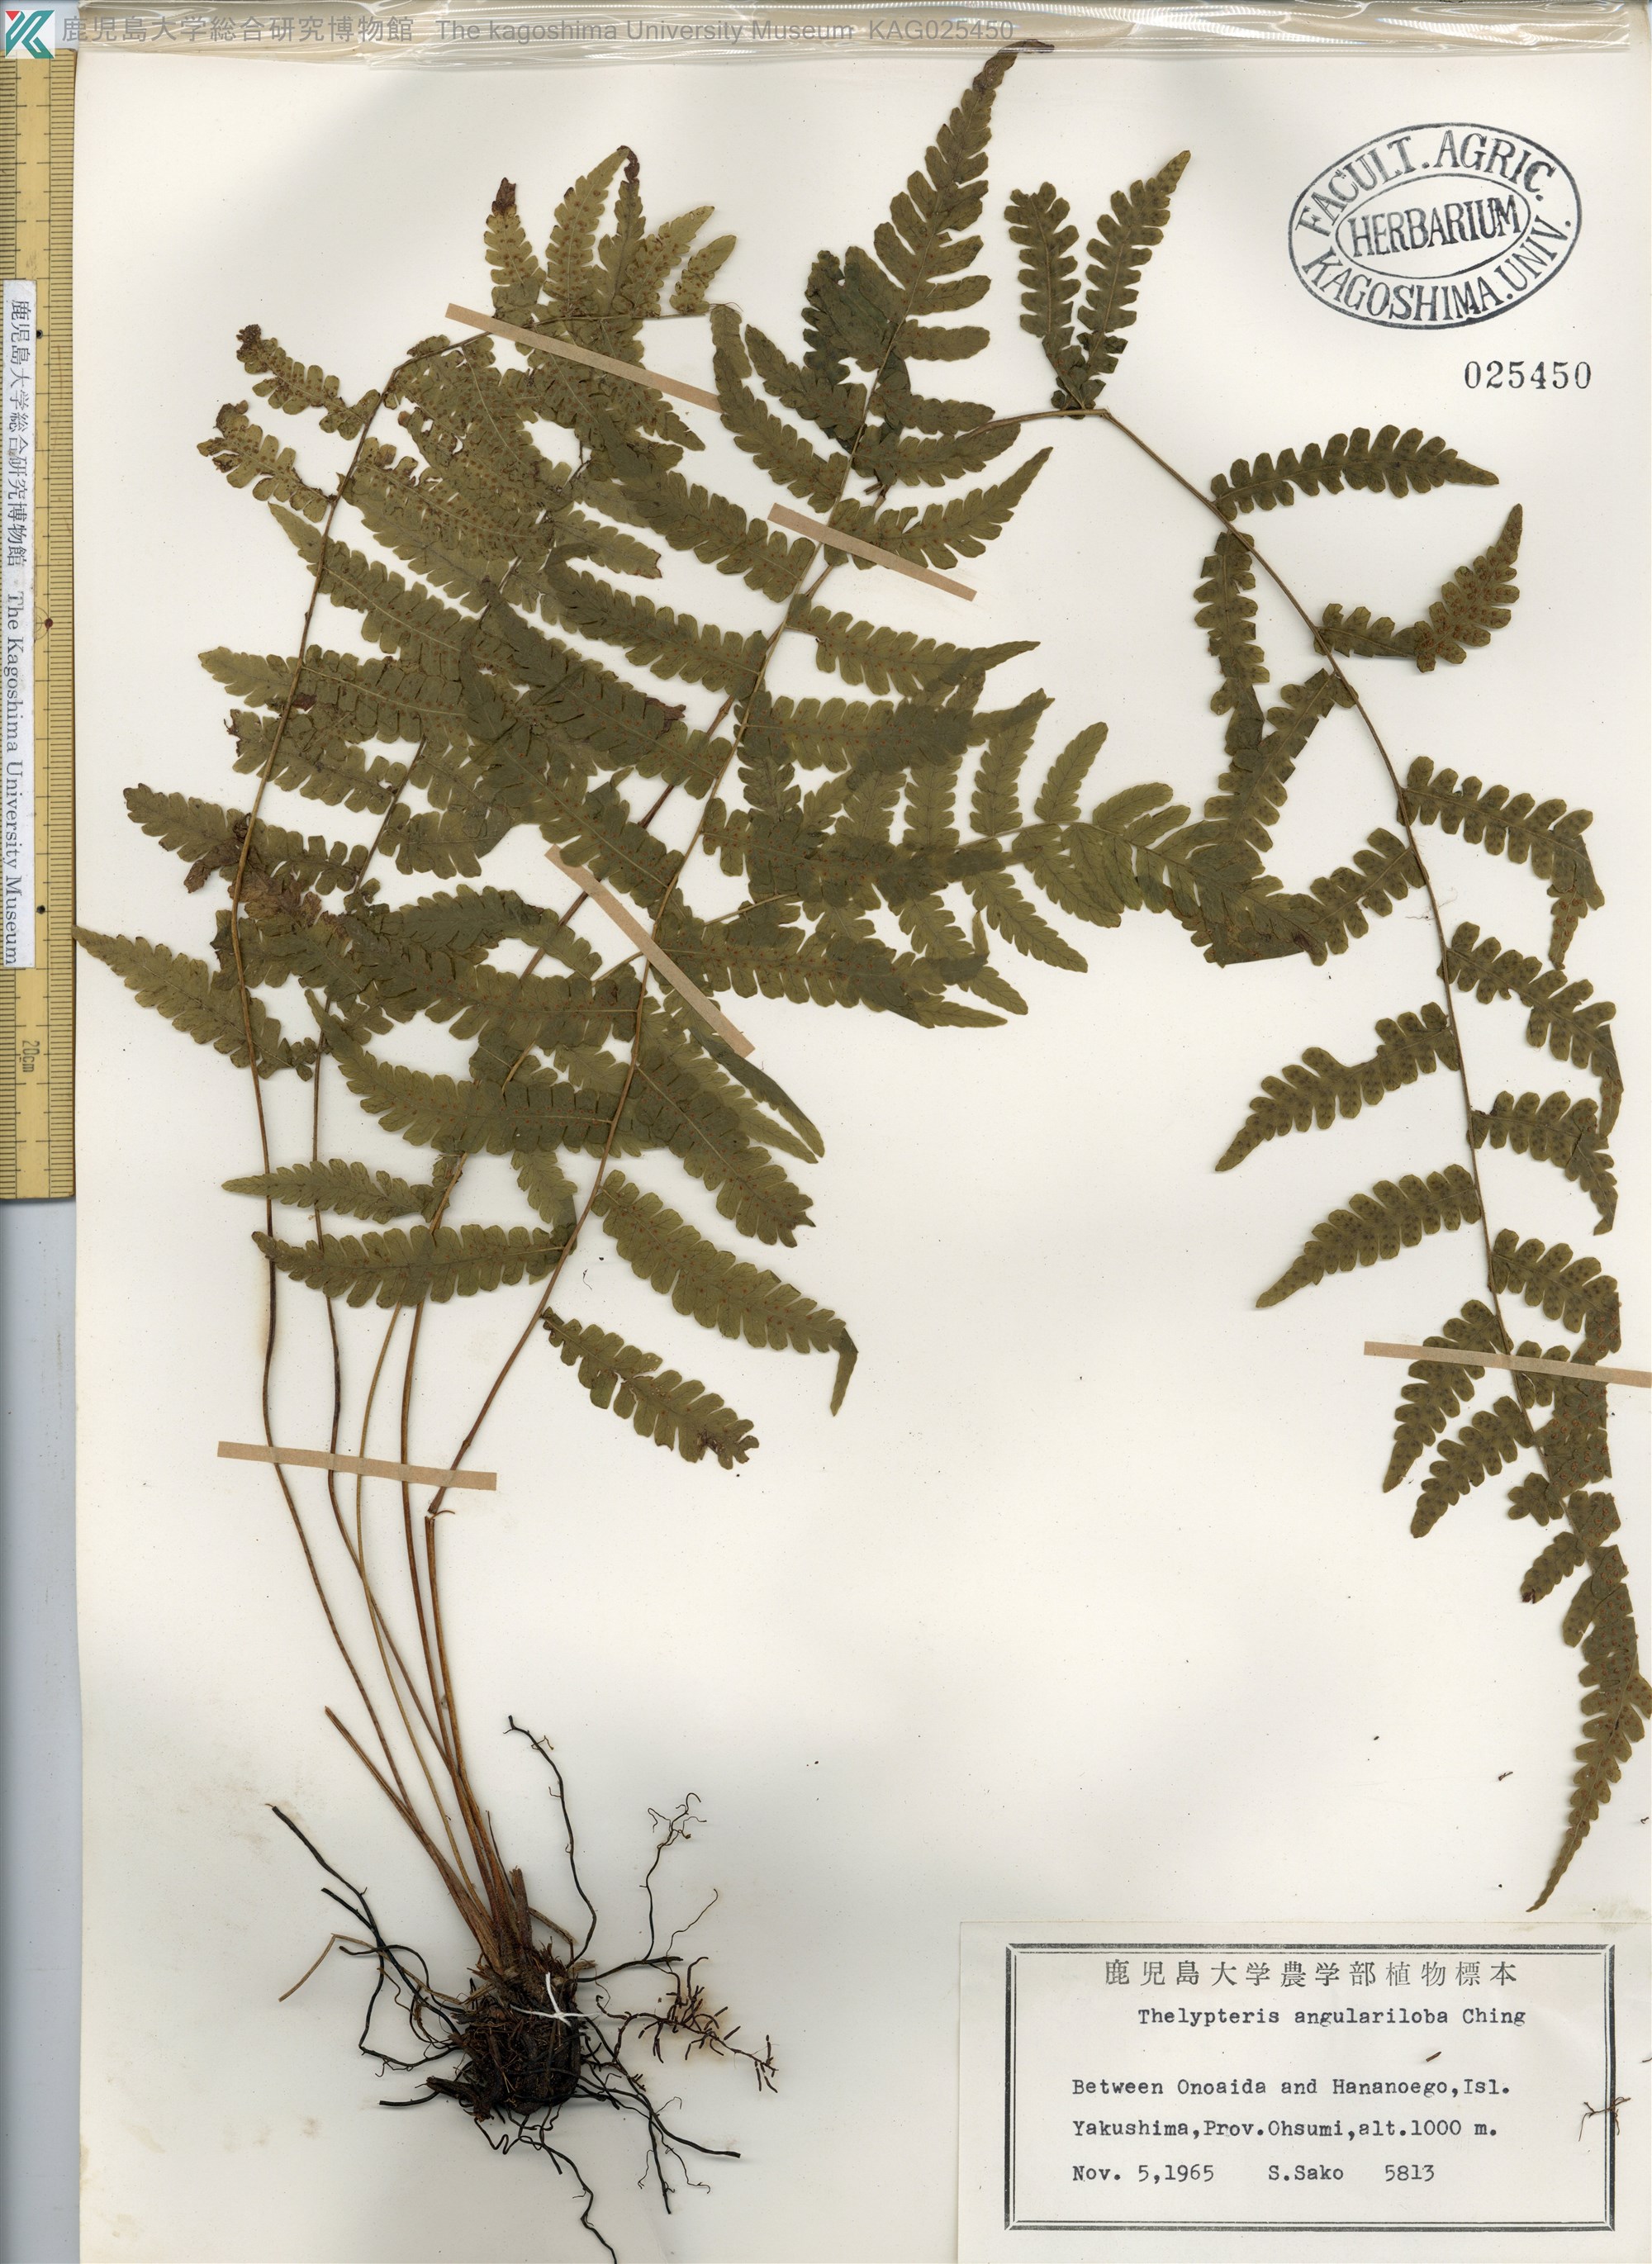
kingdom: Plantae
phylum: Tracheophyta
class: Polypodiopsida
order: Polypodiales
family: Thelypteridaceae
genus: Coryphopteris
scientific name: Coryphopteris hirsutipes
